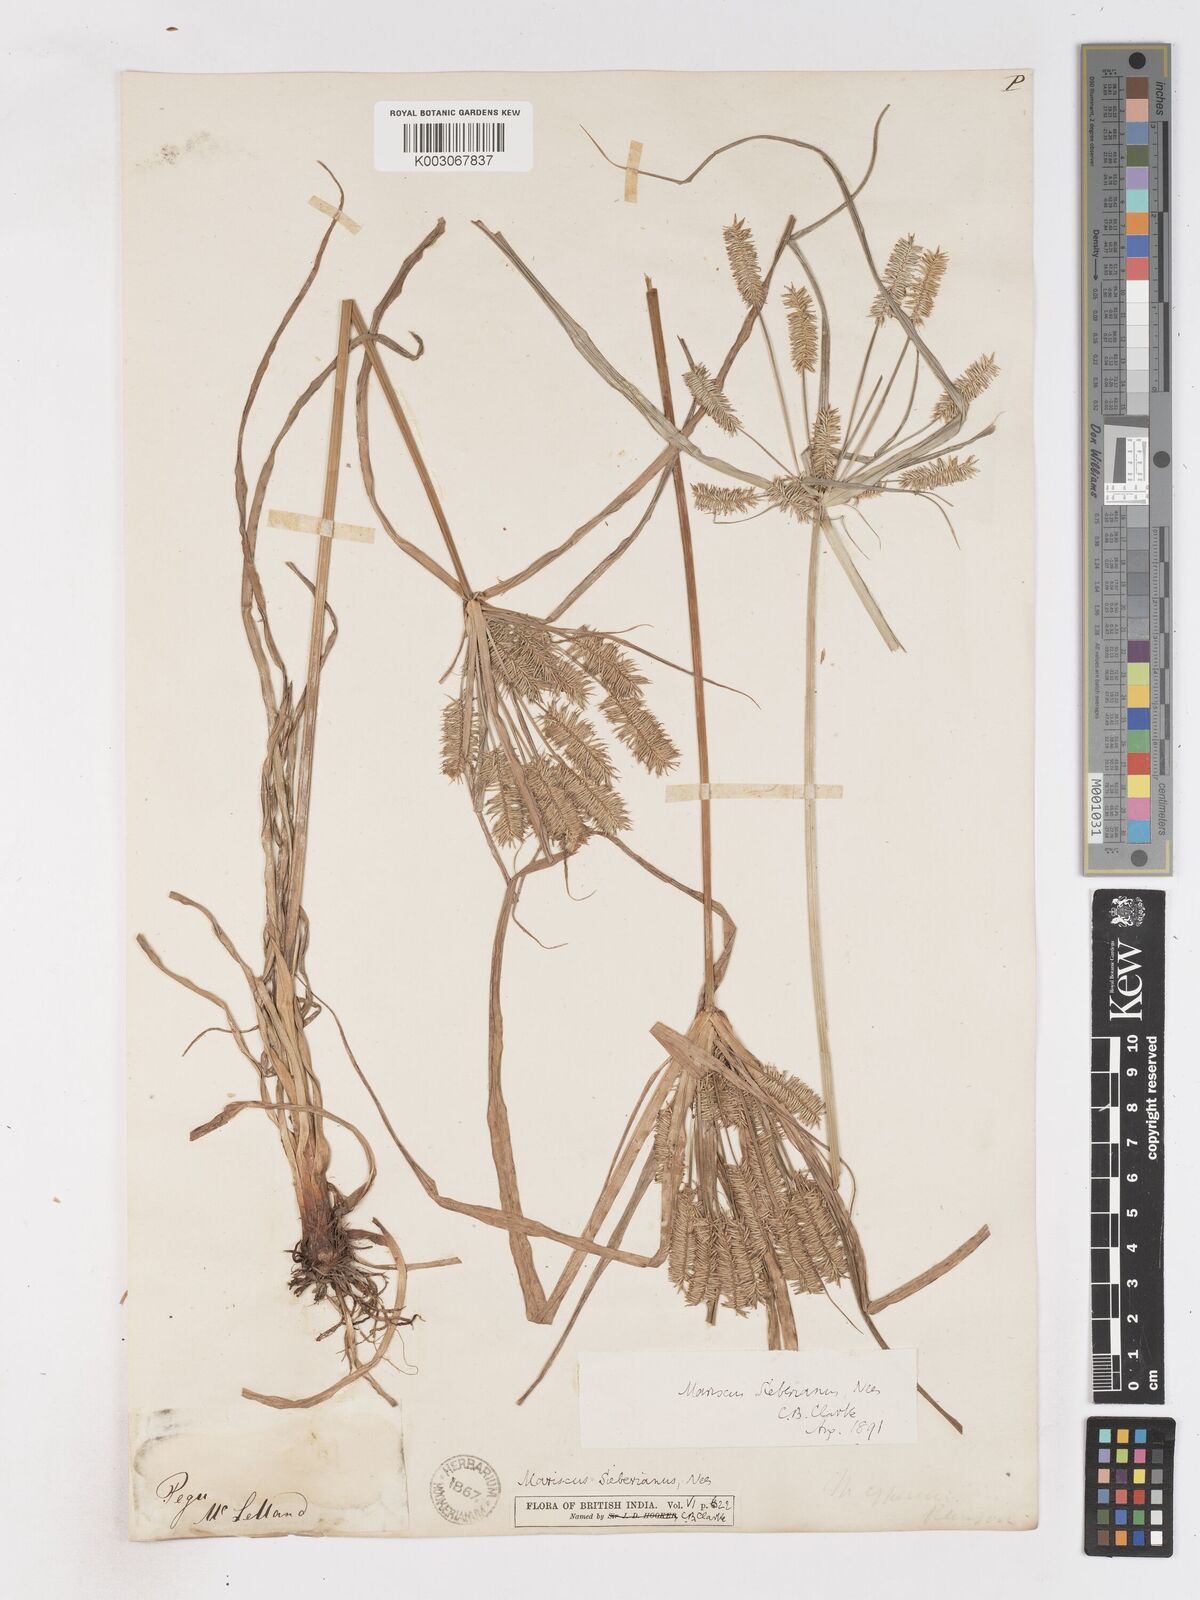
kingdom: Plantae
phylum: Tracheophyta
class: Liliopsida
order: Poales
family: Cyperaceae
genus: Cyperus
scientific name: Cyperus cyperoides
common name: Pacific island flat sedge
